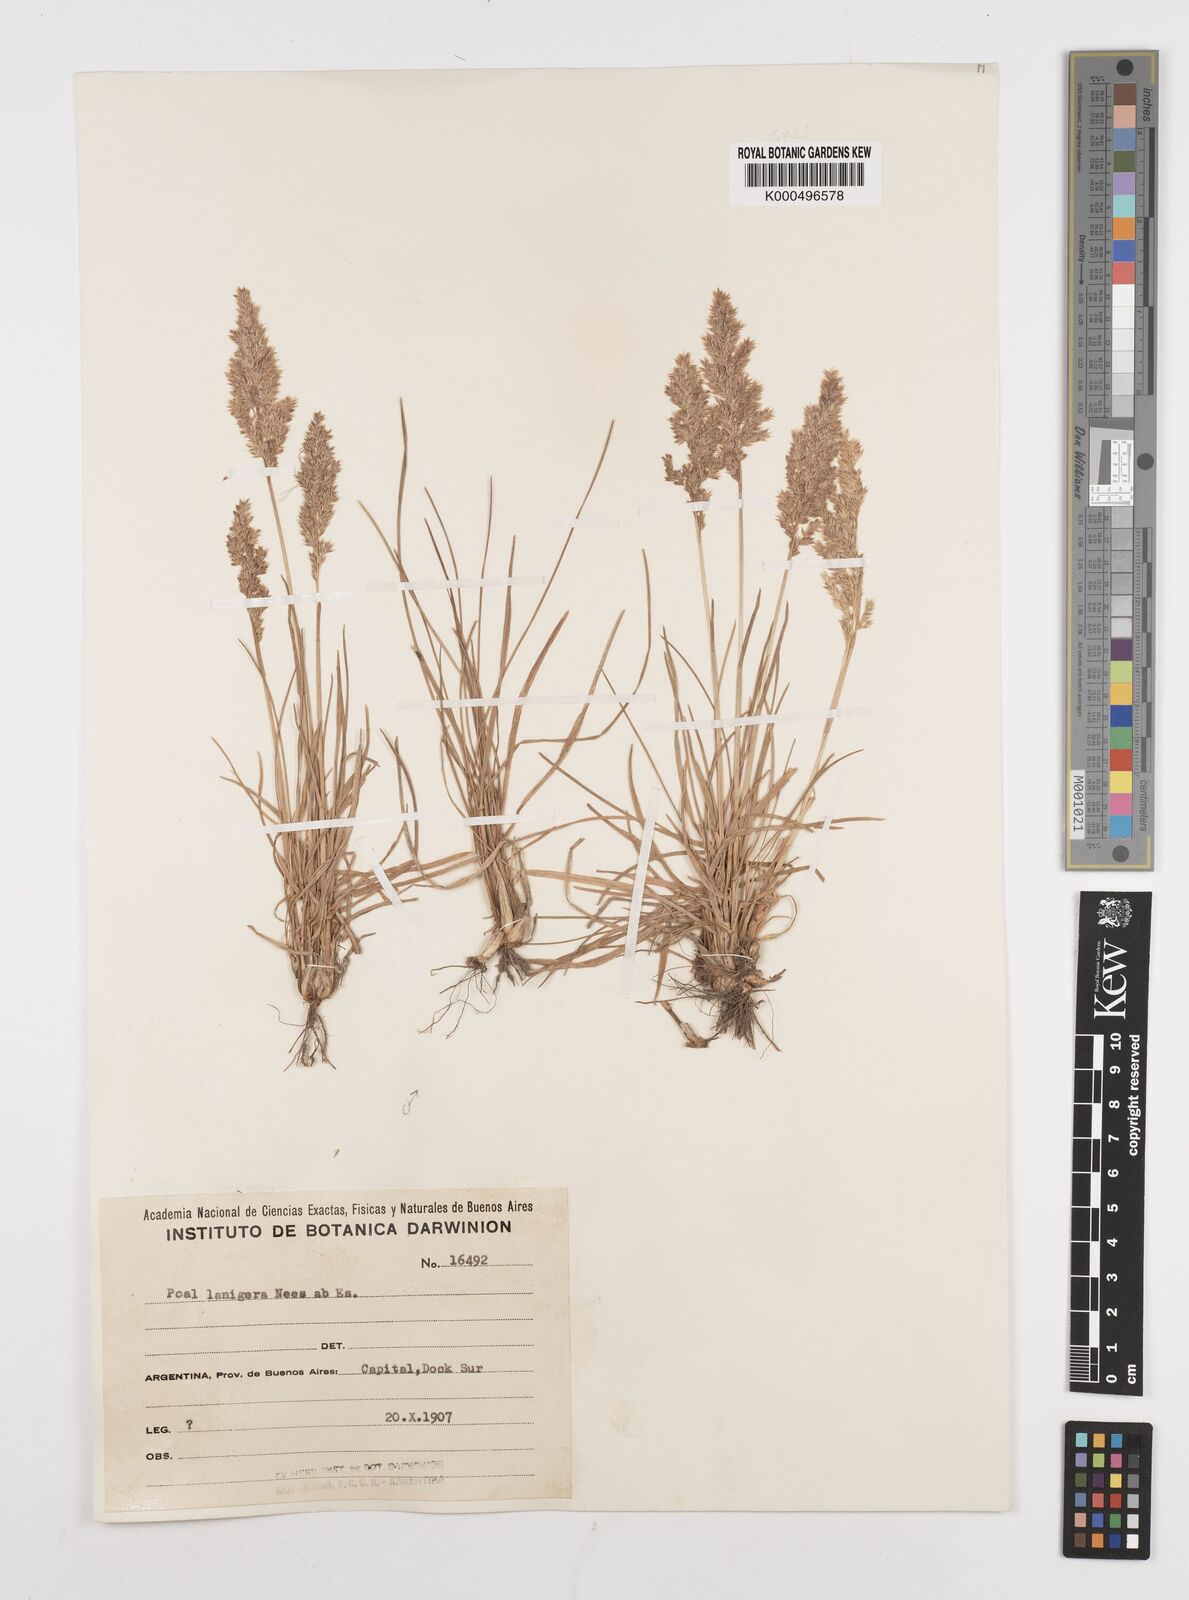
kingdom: Plantae
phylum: Tracheophyta
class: Liliopsida
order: Poales
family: Poaceae
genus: Poa
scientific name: Poa lanigera
